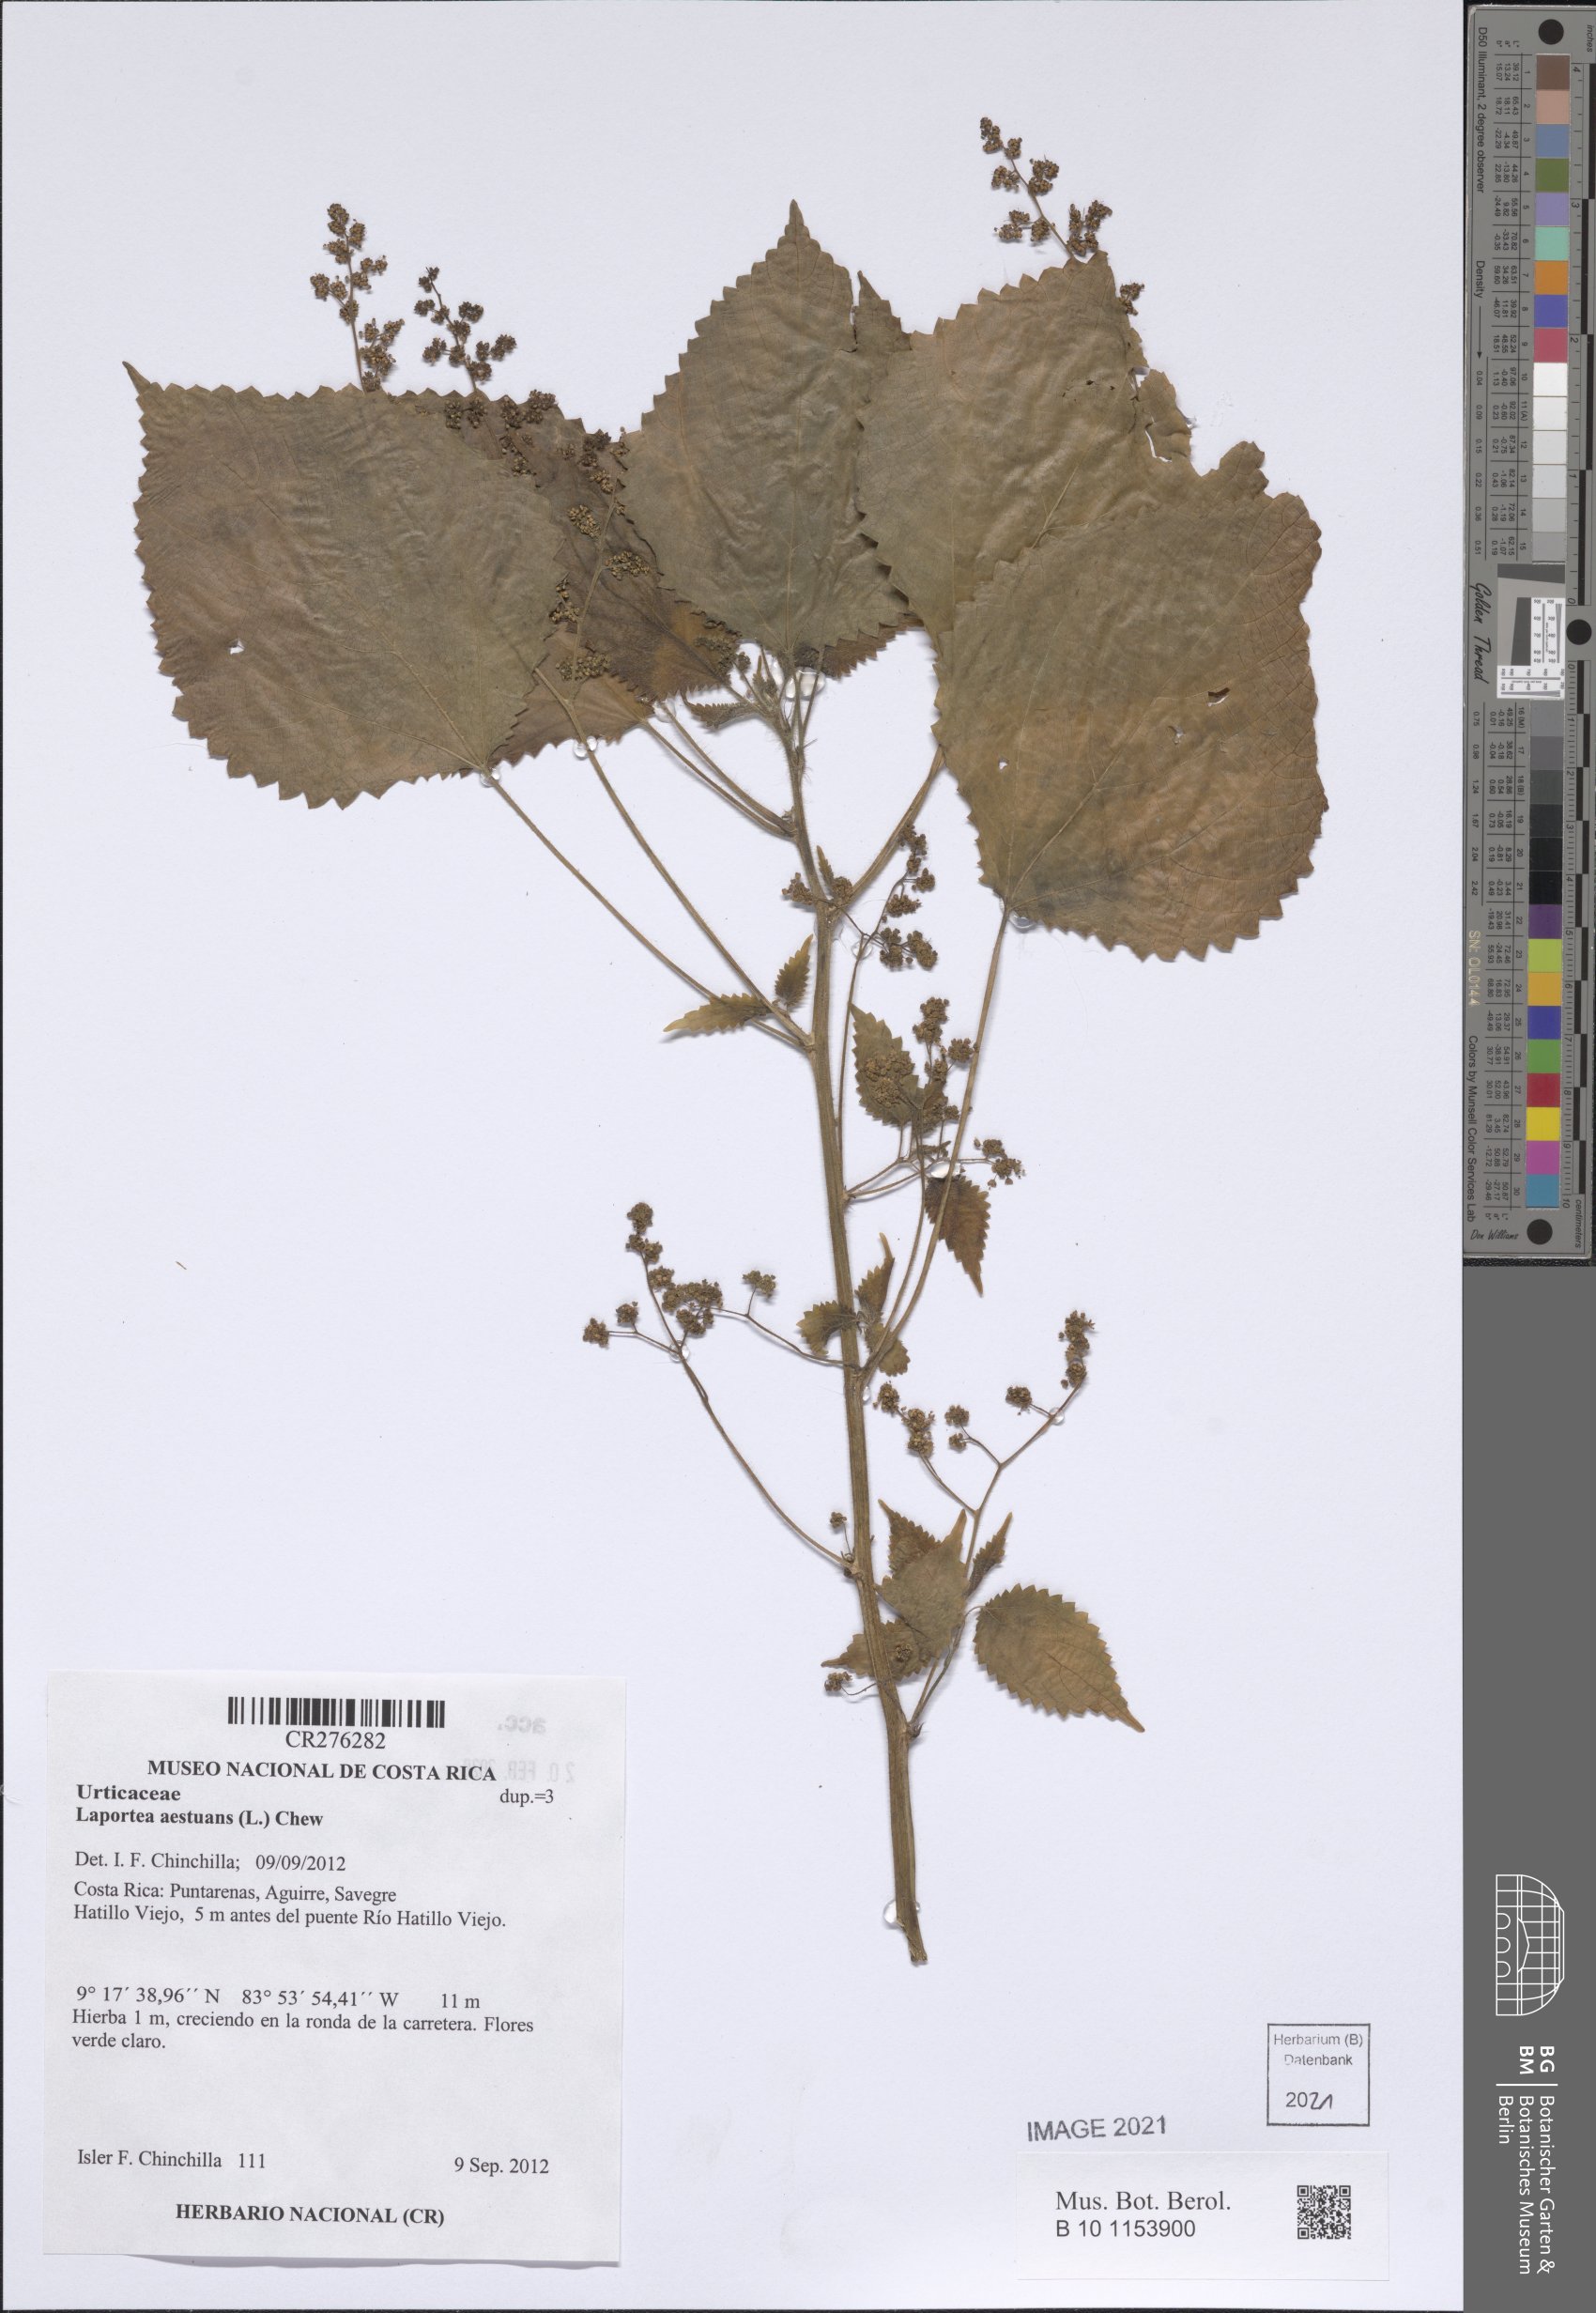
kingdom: Plantae
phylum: Tracheophyta
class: Magnoliopsida
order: Rosales
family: Urticaceae
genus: Laportea
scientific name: Laportea aestuans
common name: West indian woodnettle
